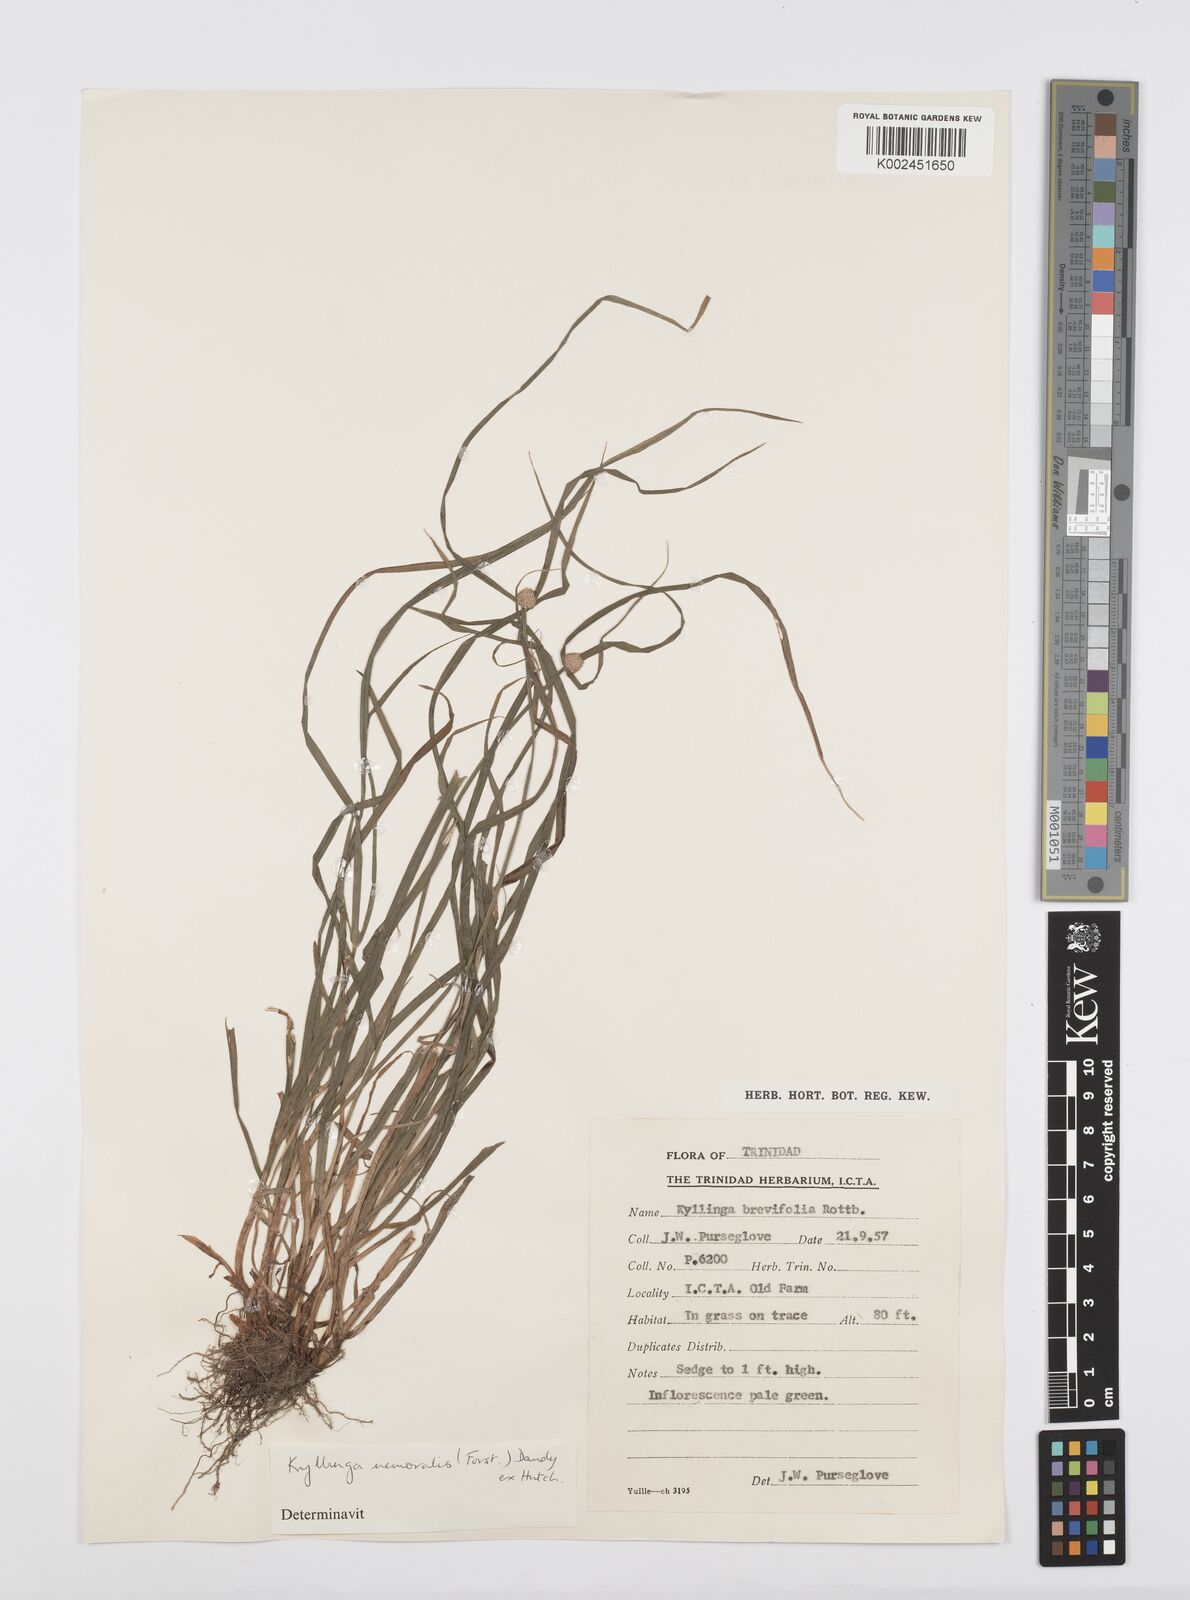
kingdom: Plantae
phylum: Tracheophyta
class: Liliopsida
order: Poales
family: Cyperaceae
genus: Cyperus
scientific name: Cyperus
